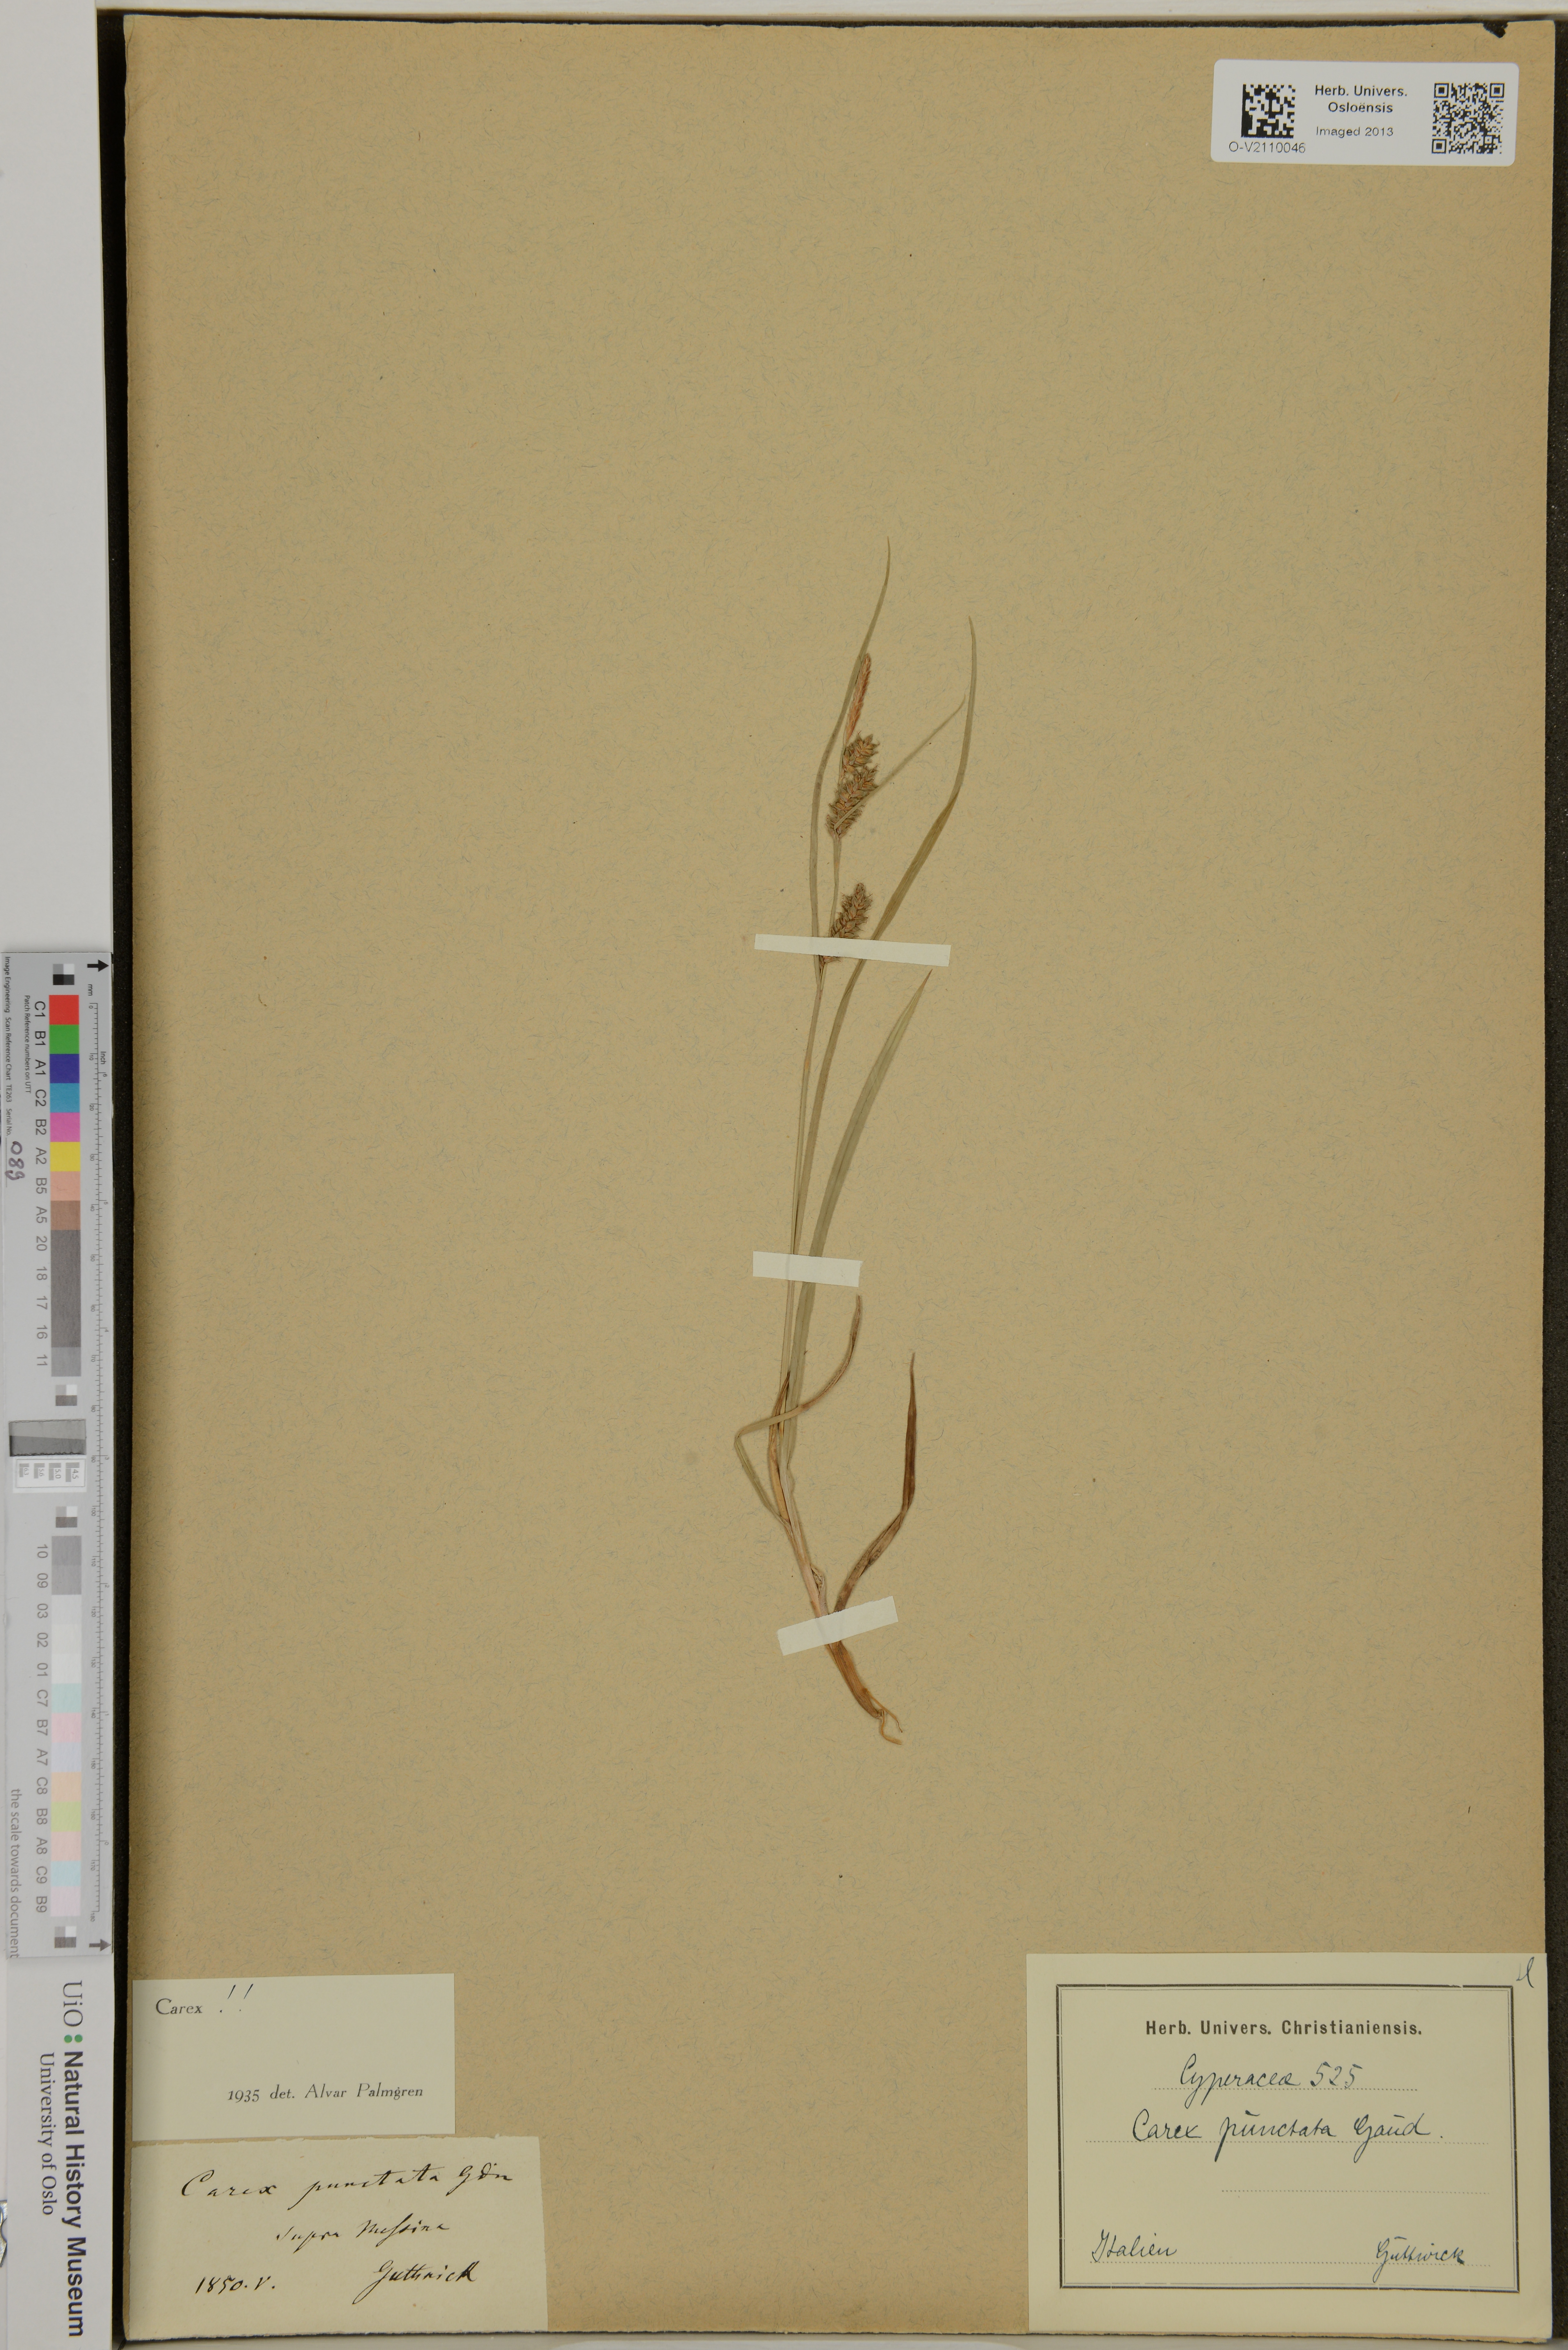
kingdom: Plantae
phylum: Tracheophyta
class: Liliopsida
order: Poales
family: Cyperaceae
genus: Carex
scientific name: Carex punctata
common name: Dotted sedge
